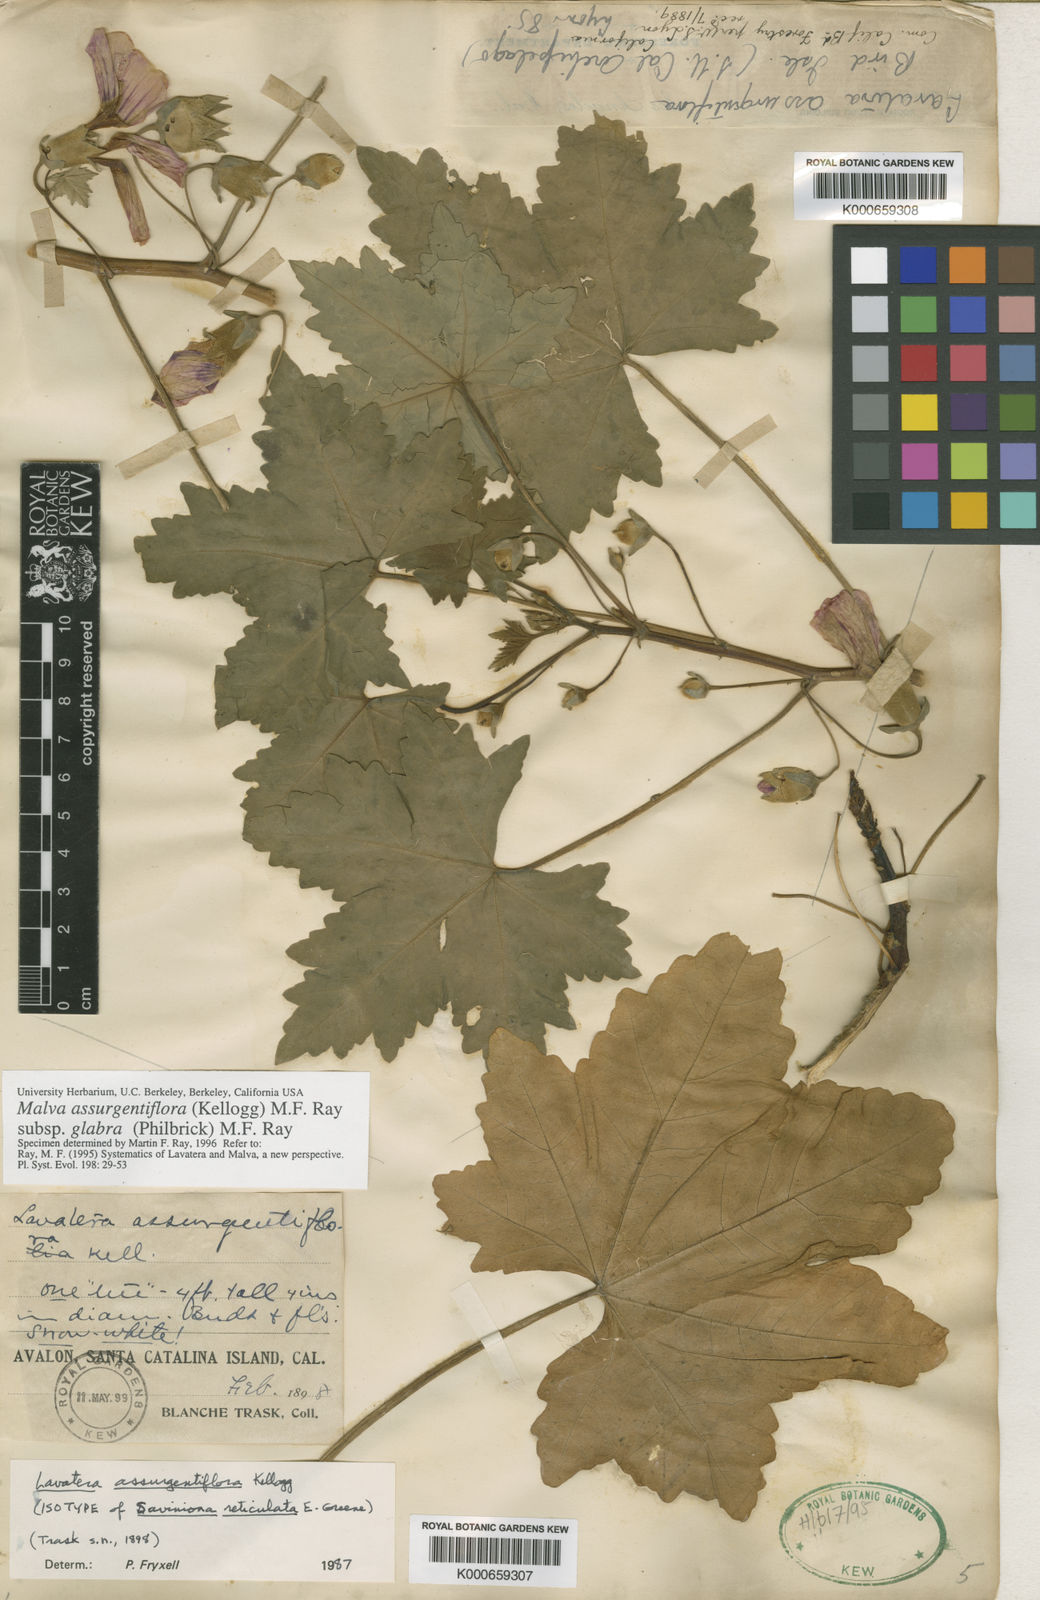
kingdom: Plantae
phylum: Tracheophyta
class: Magnoliopsida
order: Malvales
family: Malvaceae
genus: Malva
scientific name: Malva assurgentiflora
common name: Island mallow
